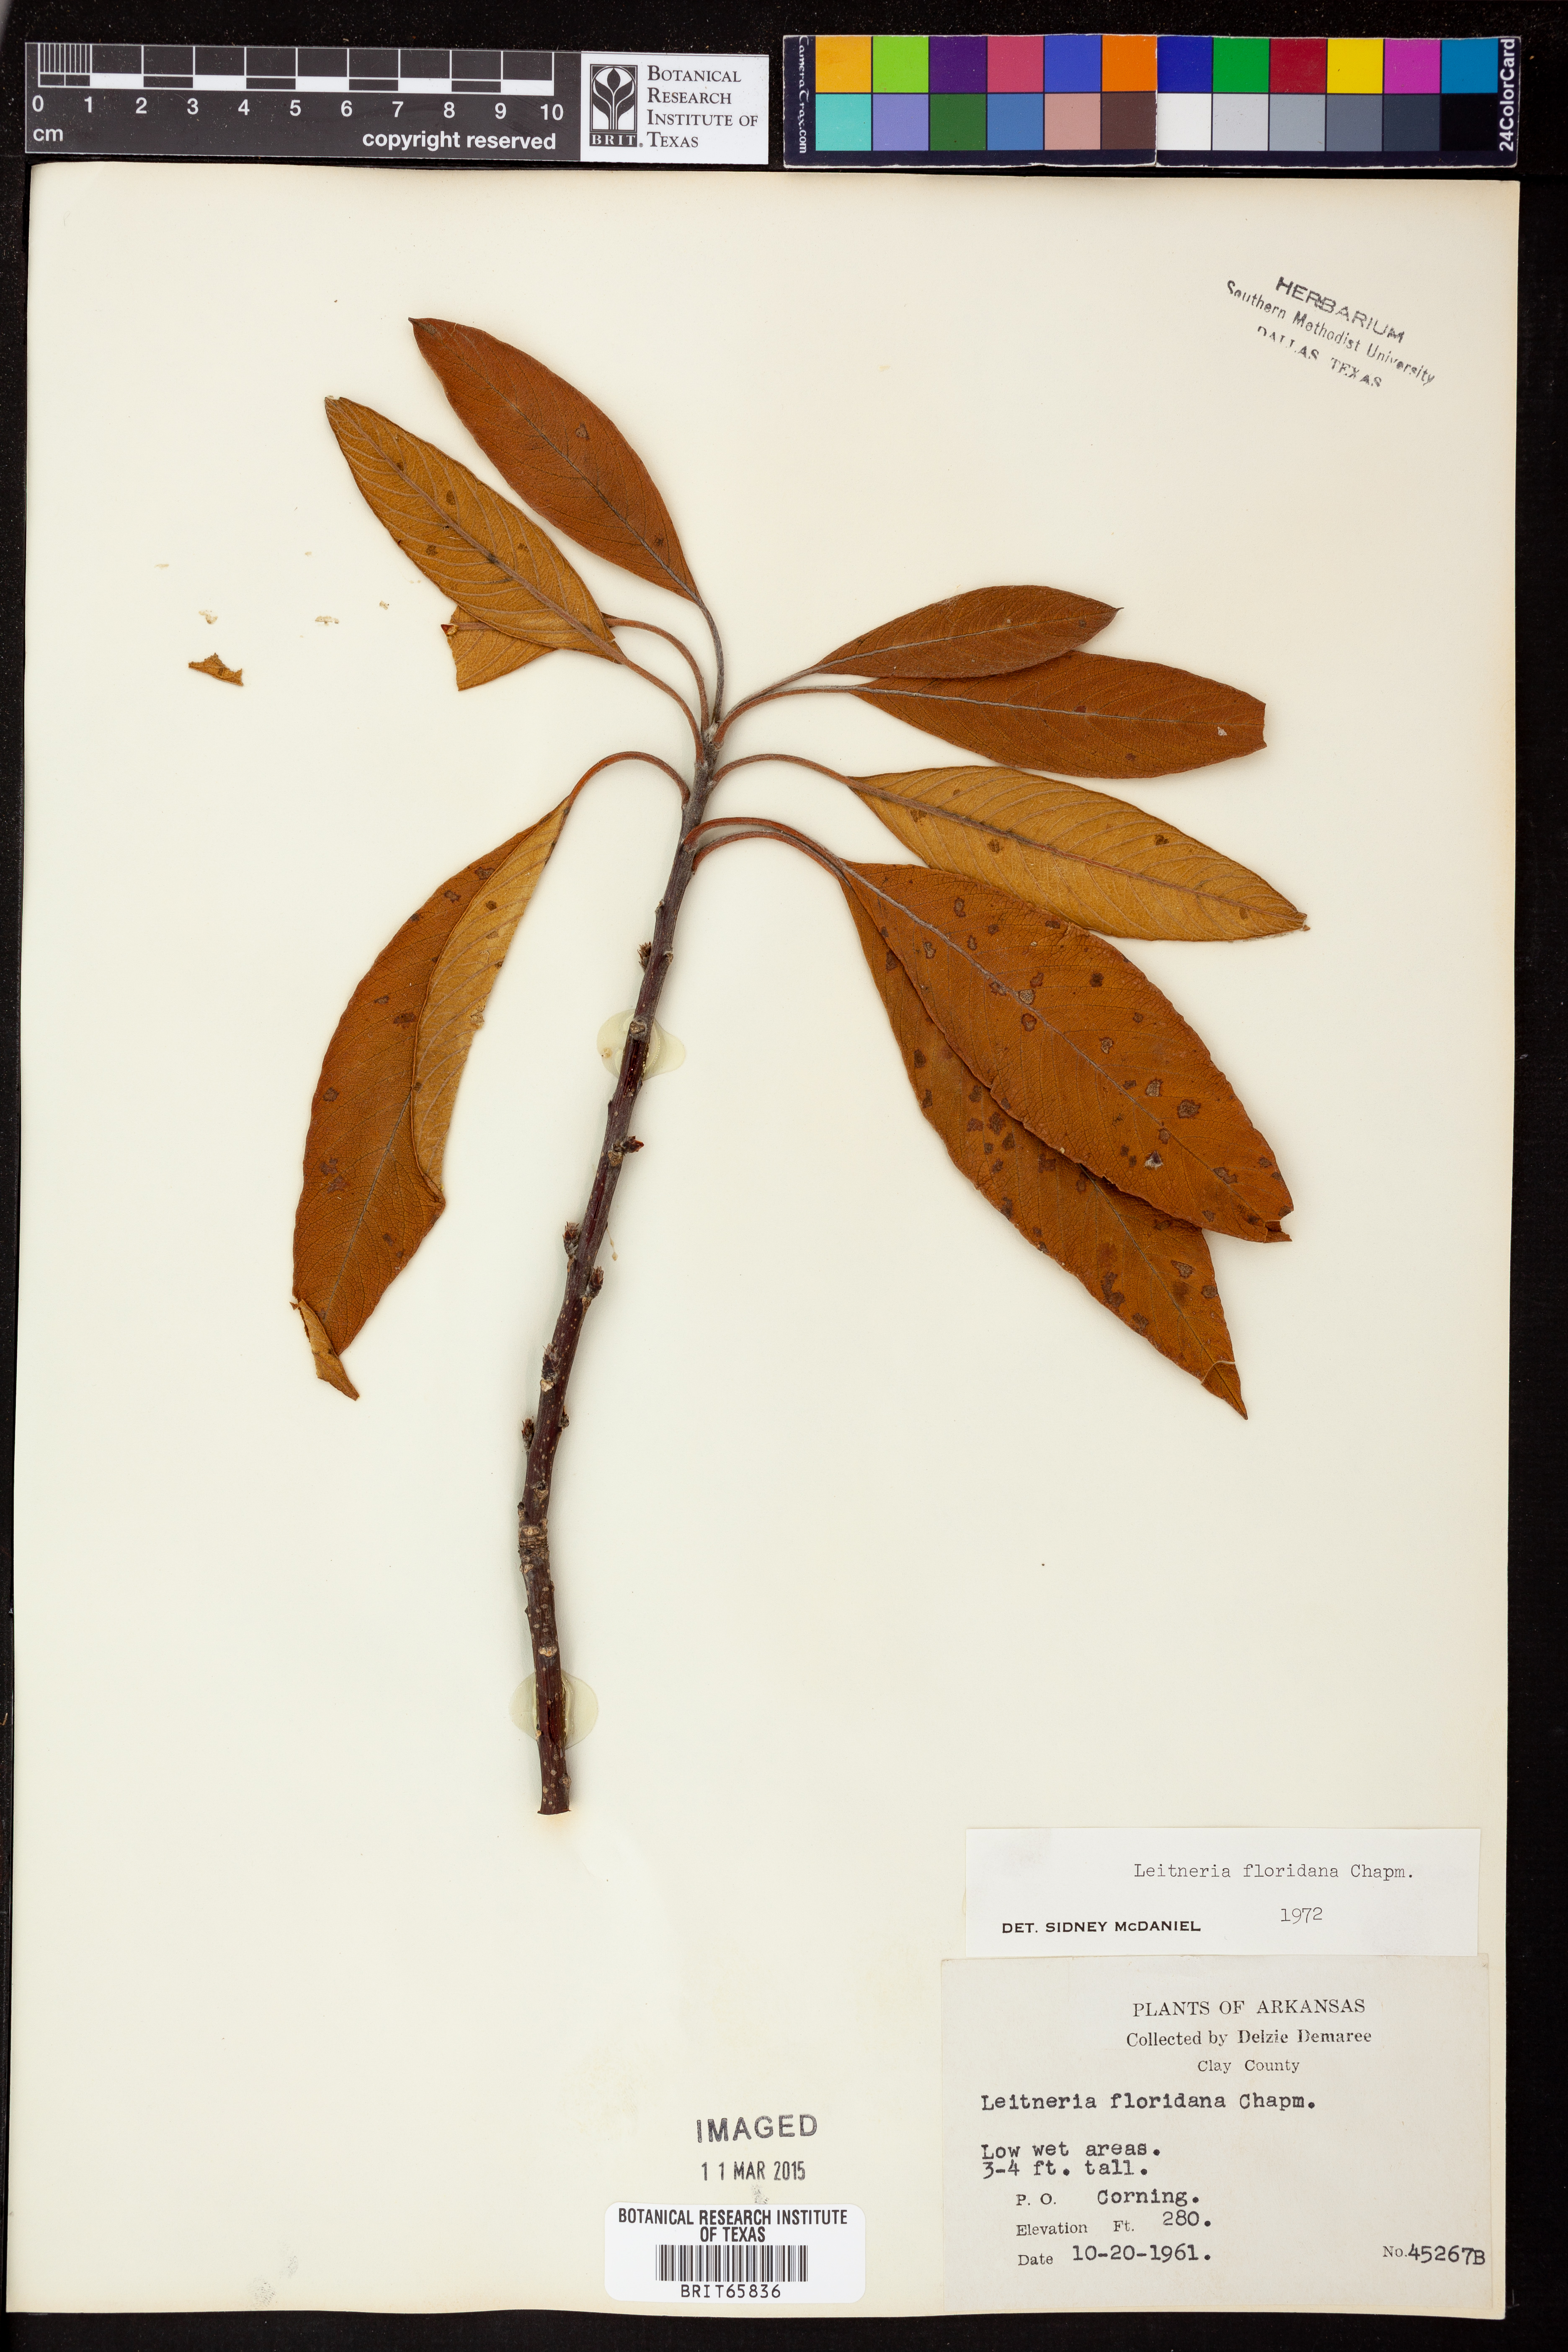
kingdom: Plantae
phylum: Tracheophyta
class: Magnoliopsida
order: Sapindales
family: Simaroubaceae
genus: Leitneria
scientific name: Leitneria floridana
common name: Corkwood
